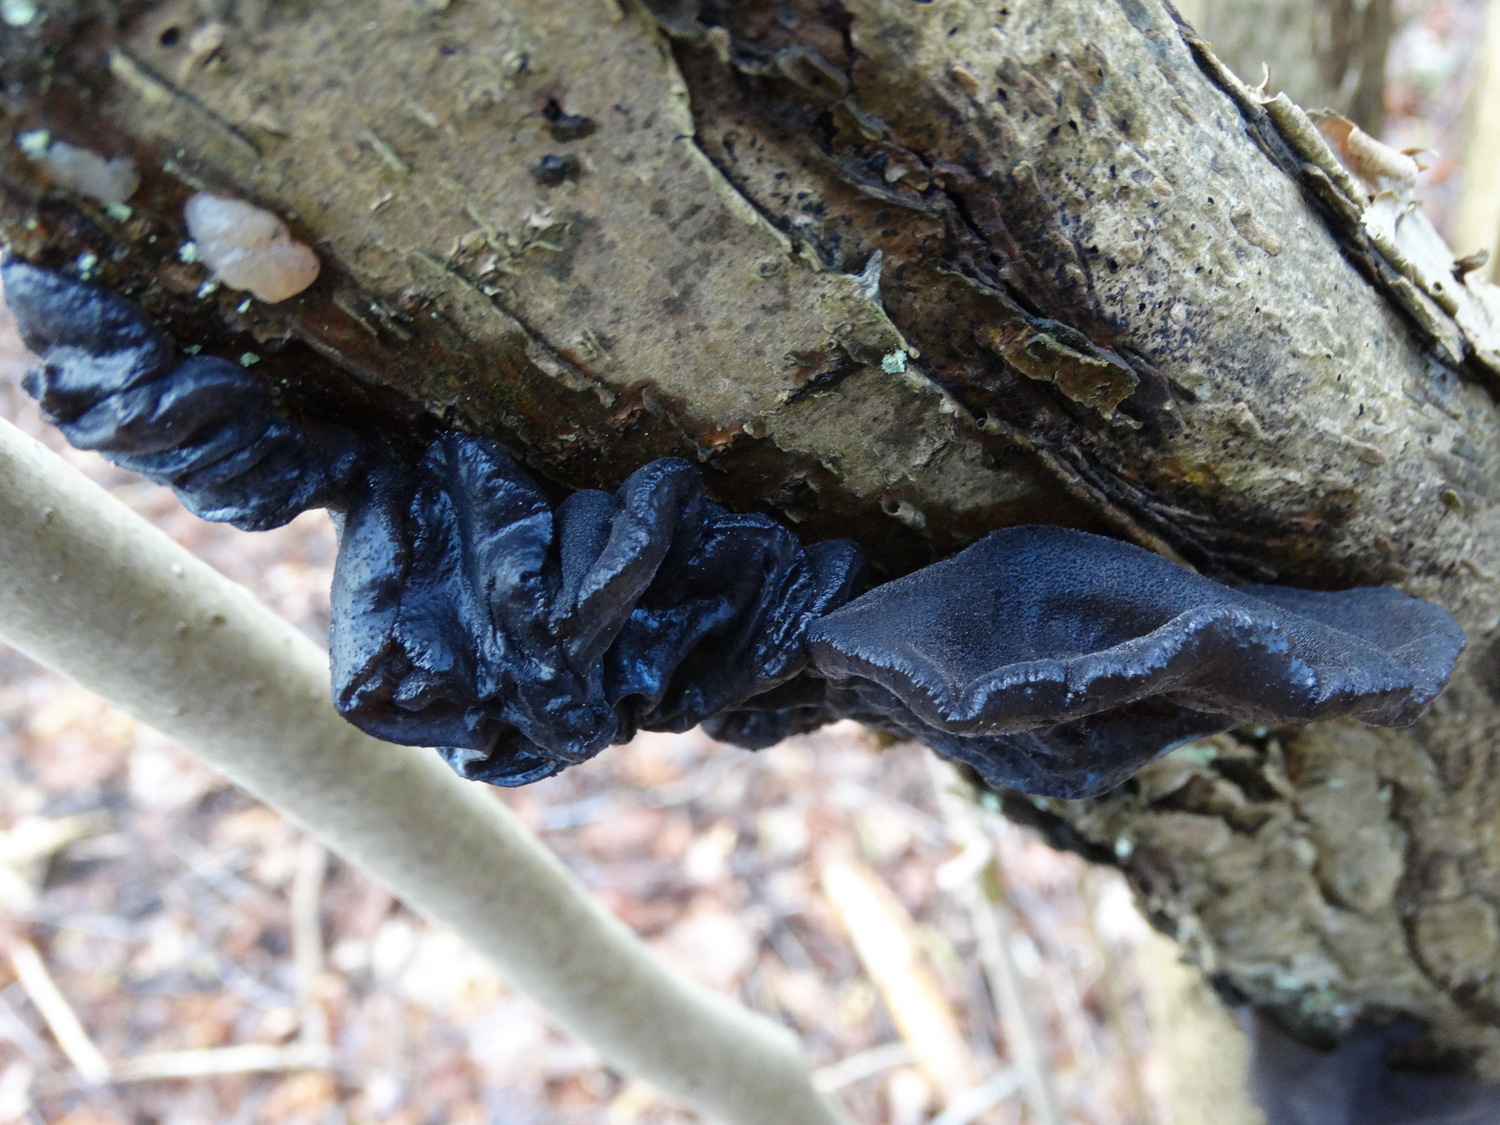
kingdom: Fungi
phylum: Basidiomycota
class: Agaricomycetes
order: Auriculariales
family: Auriculariaceae
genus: Exidia
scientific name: Exidia glandulosa
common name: ege-bævretop
